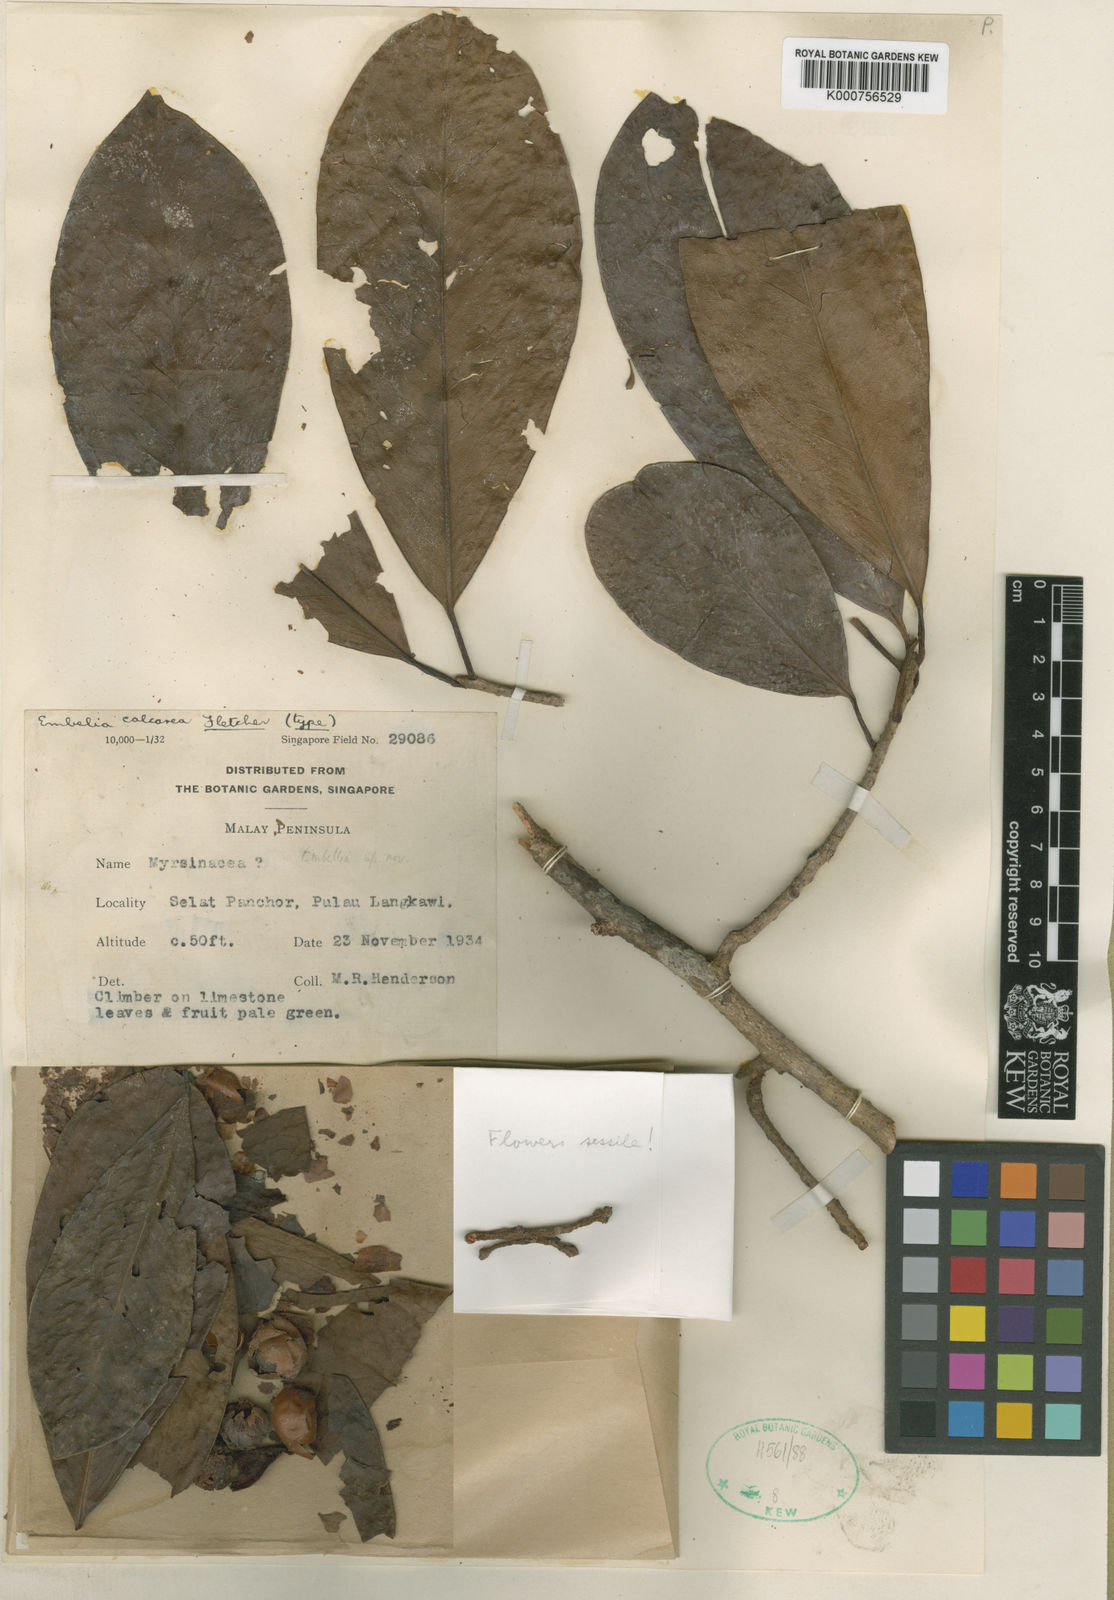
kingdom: Plantae
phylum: Tracheophyta
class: Magnoliopsida
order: Ericales
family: Primulaceae
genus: Embelia
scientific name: Embelia macrocarpa
